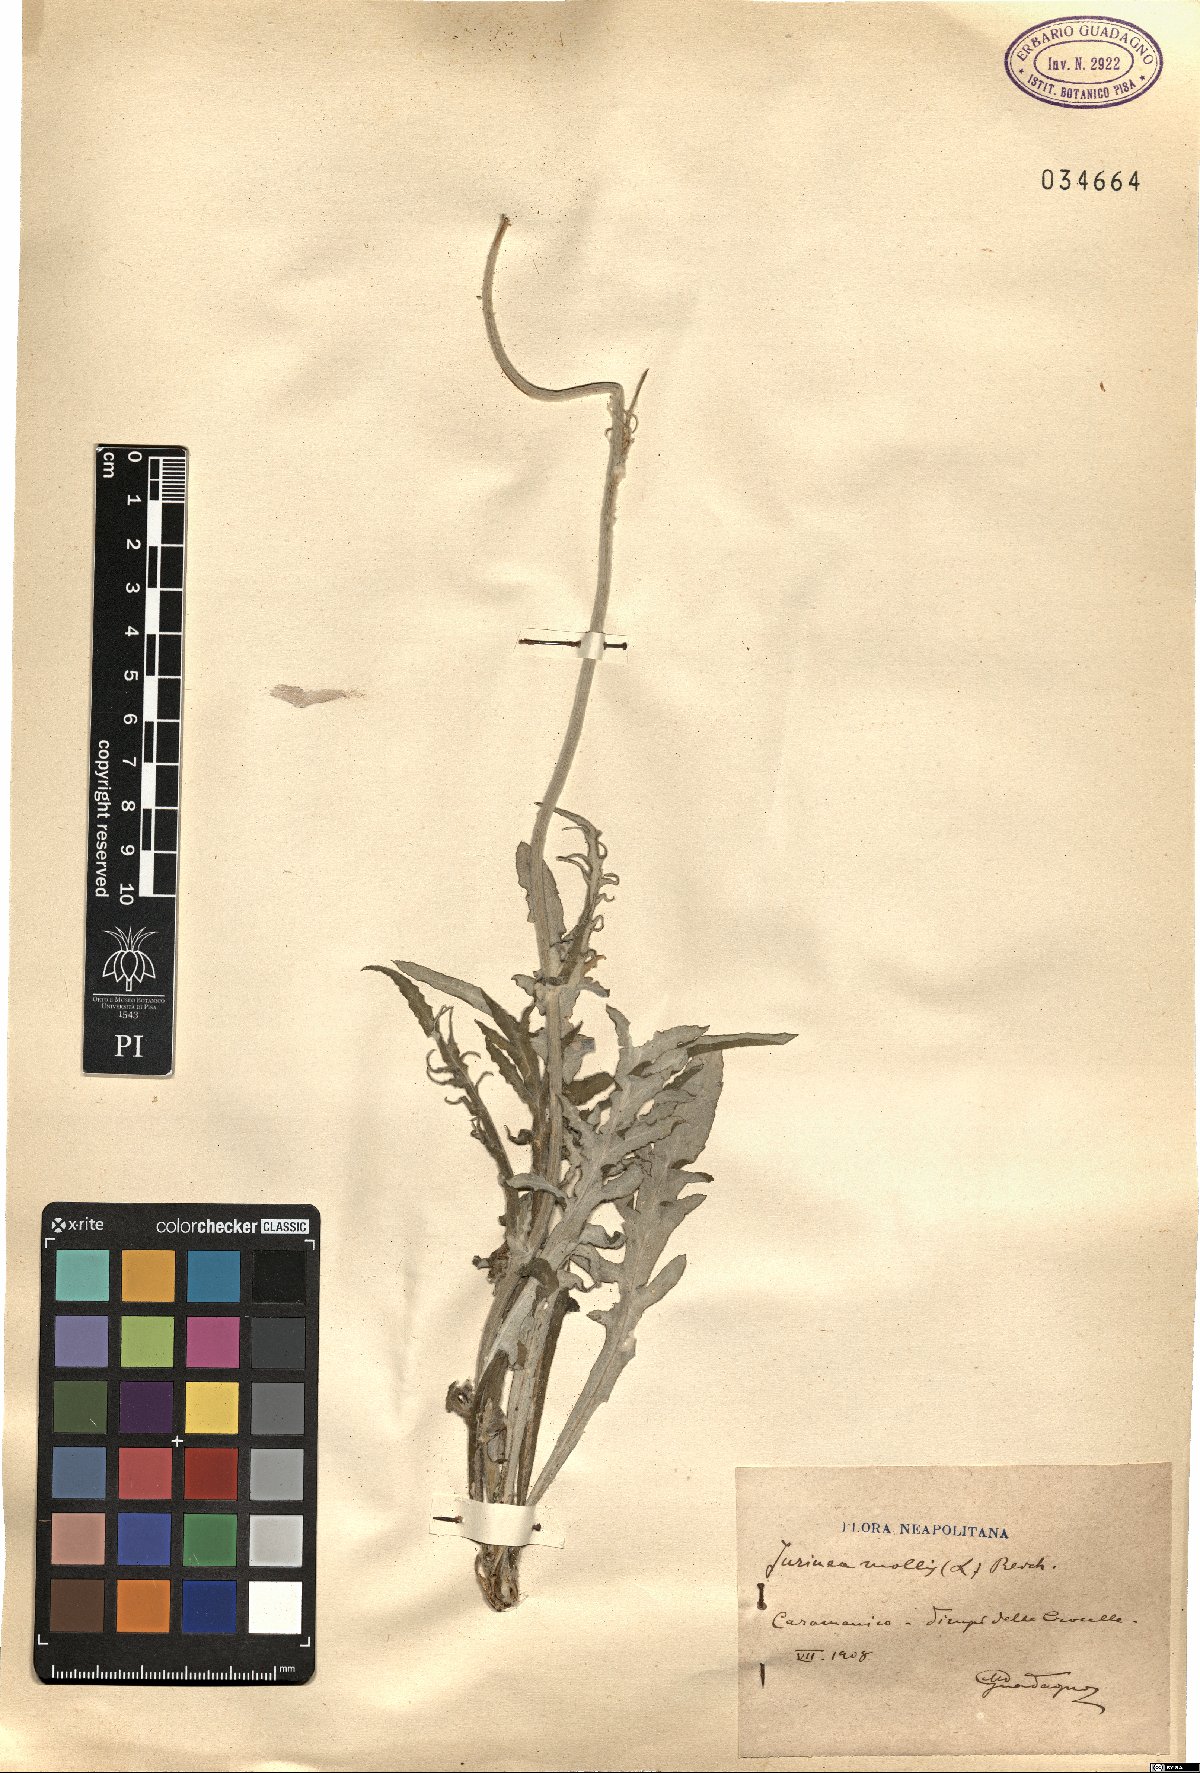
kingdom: Plantae
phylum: Tracheophyta
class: Magnoliopsida
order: Asterales
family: Asteraceae
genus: Jurinea
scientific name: Jurinea mollis
